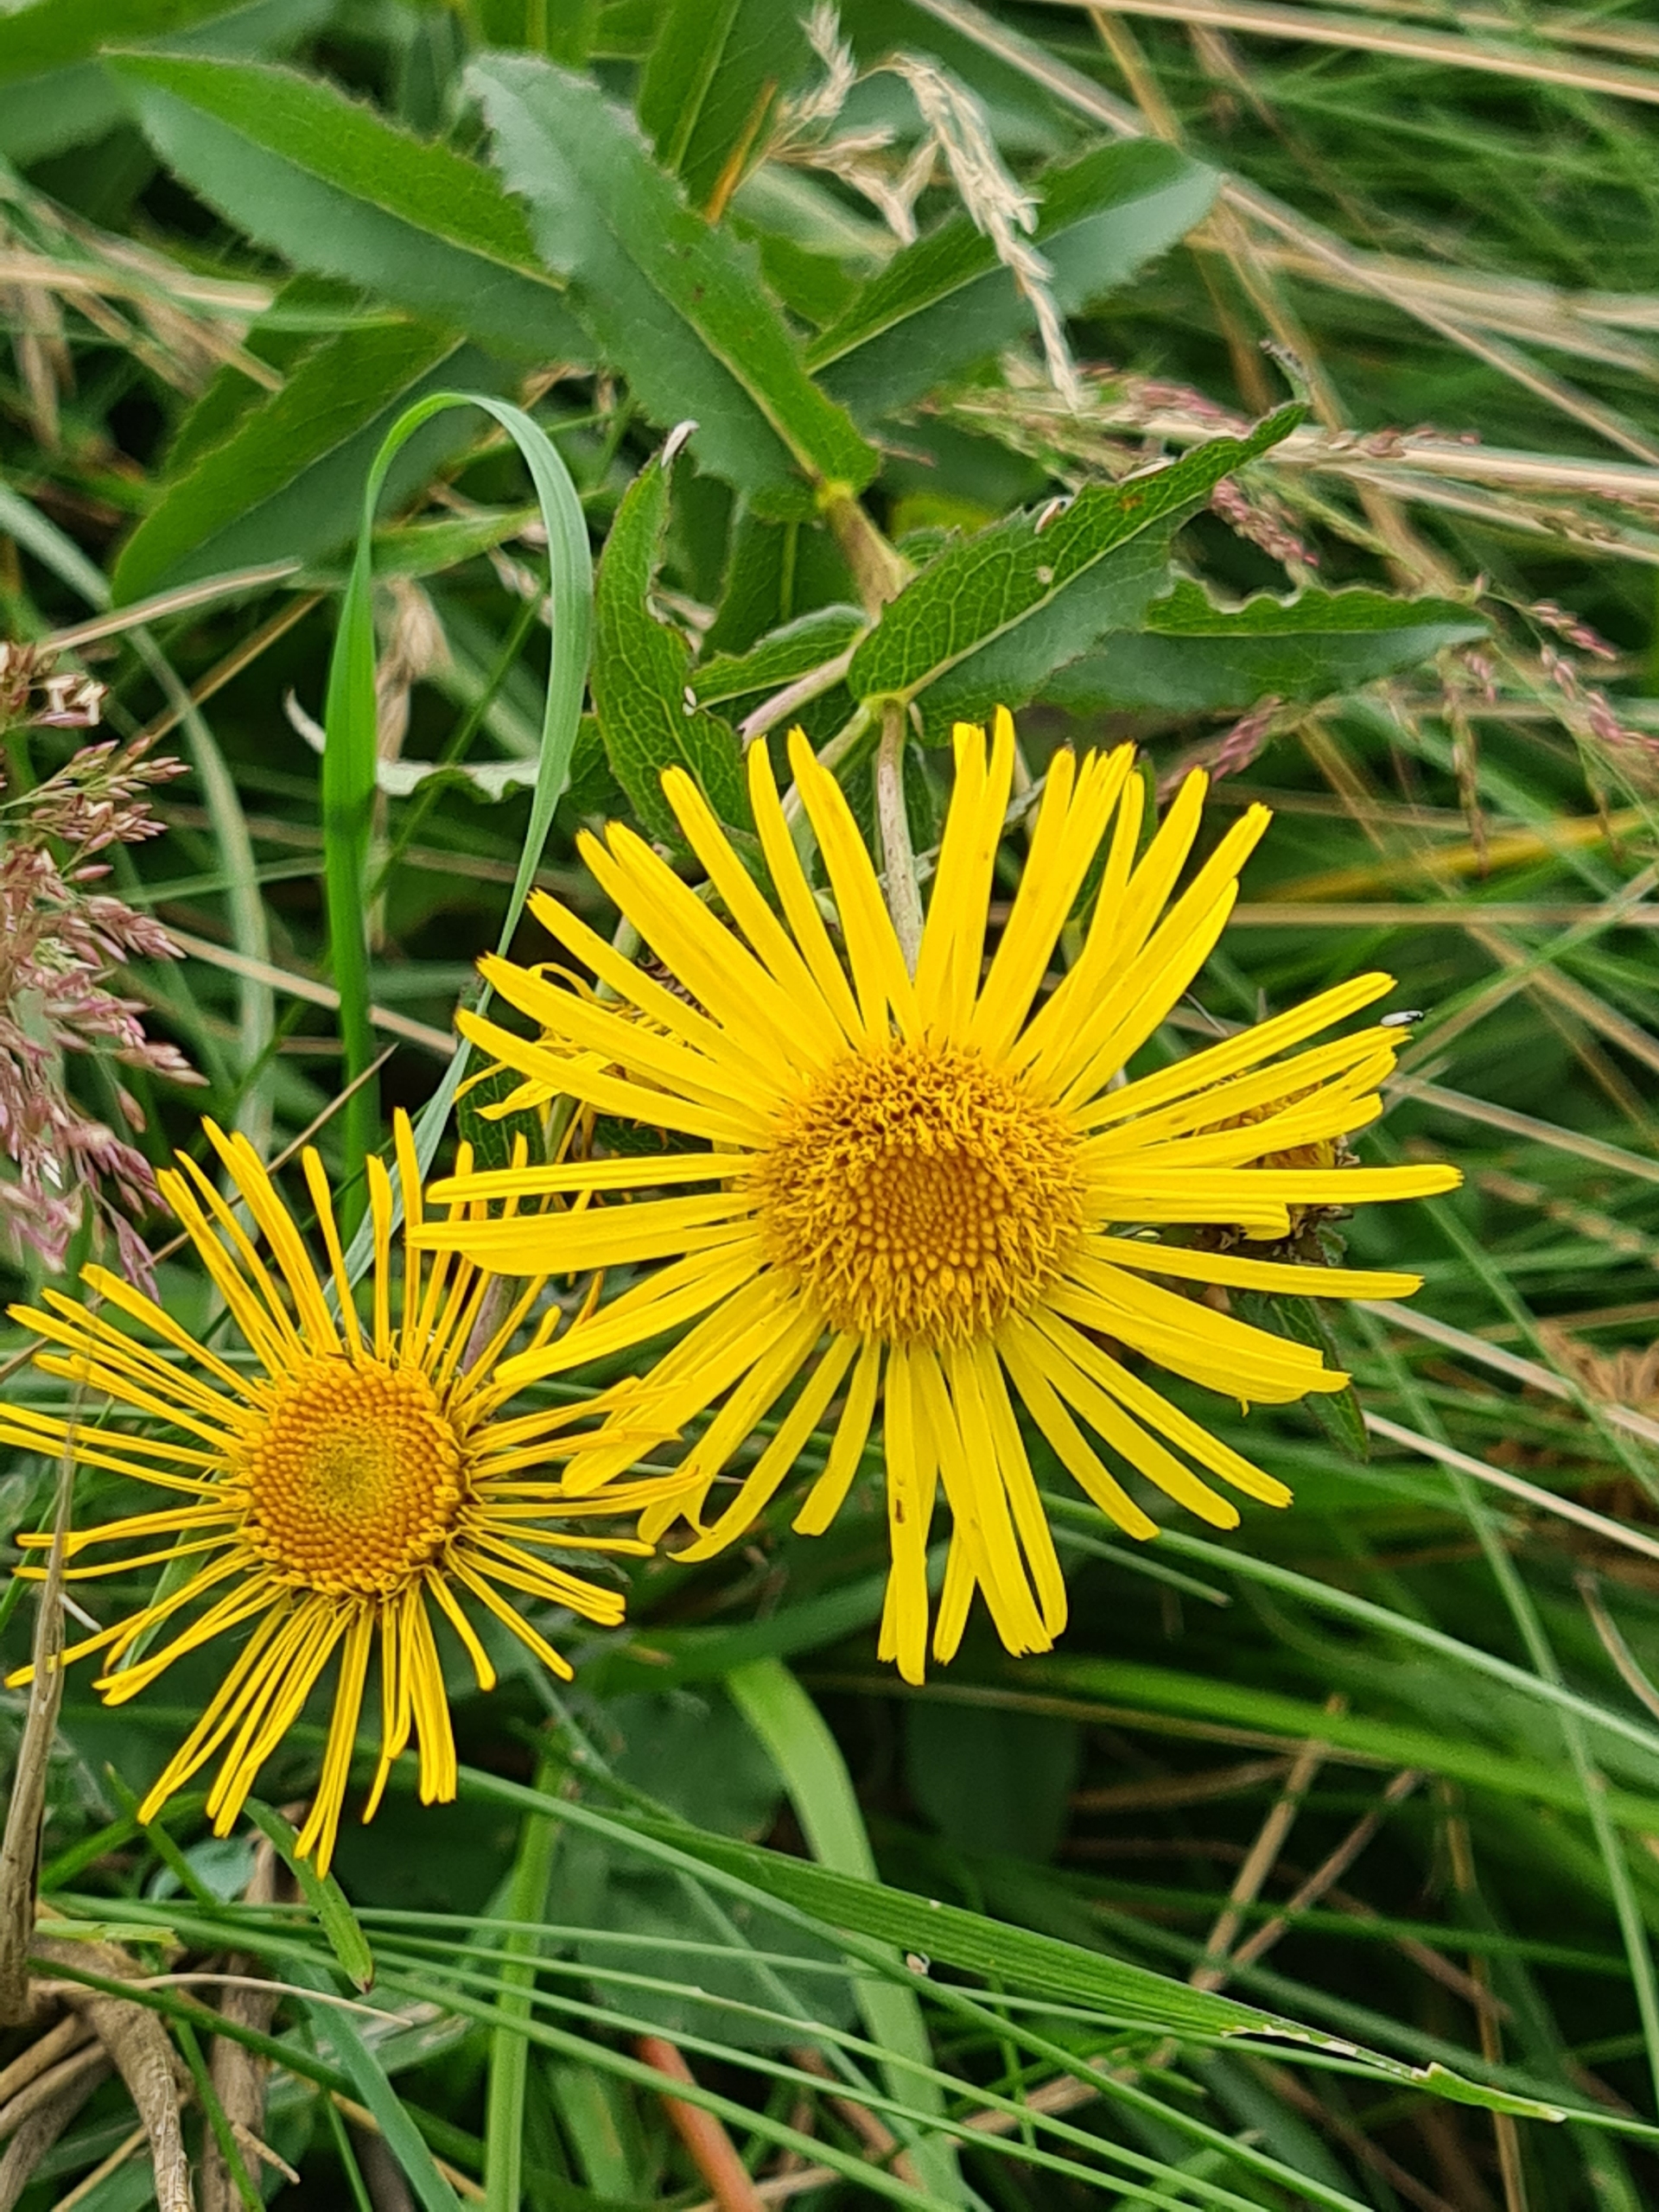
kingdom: Plantae
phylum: Tracheophyta
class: Magnoliopsida
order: Asterales
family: Asteraceae
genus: Pentanema
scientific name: Pentanema salicinum
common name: Pile-alant
